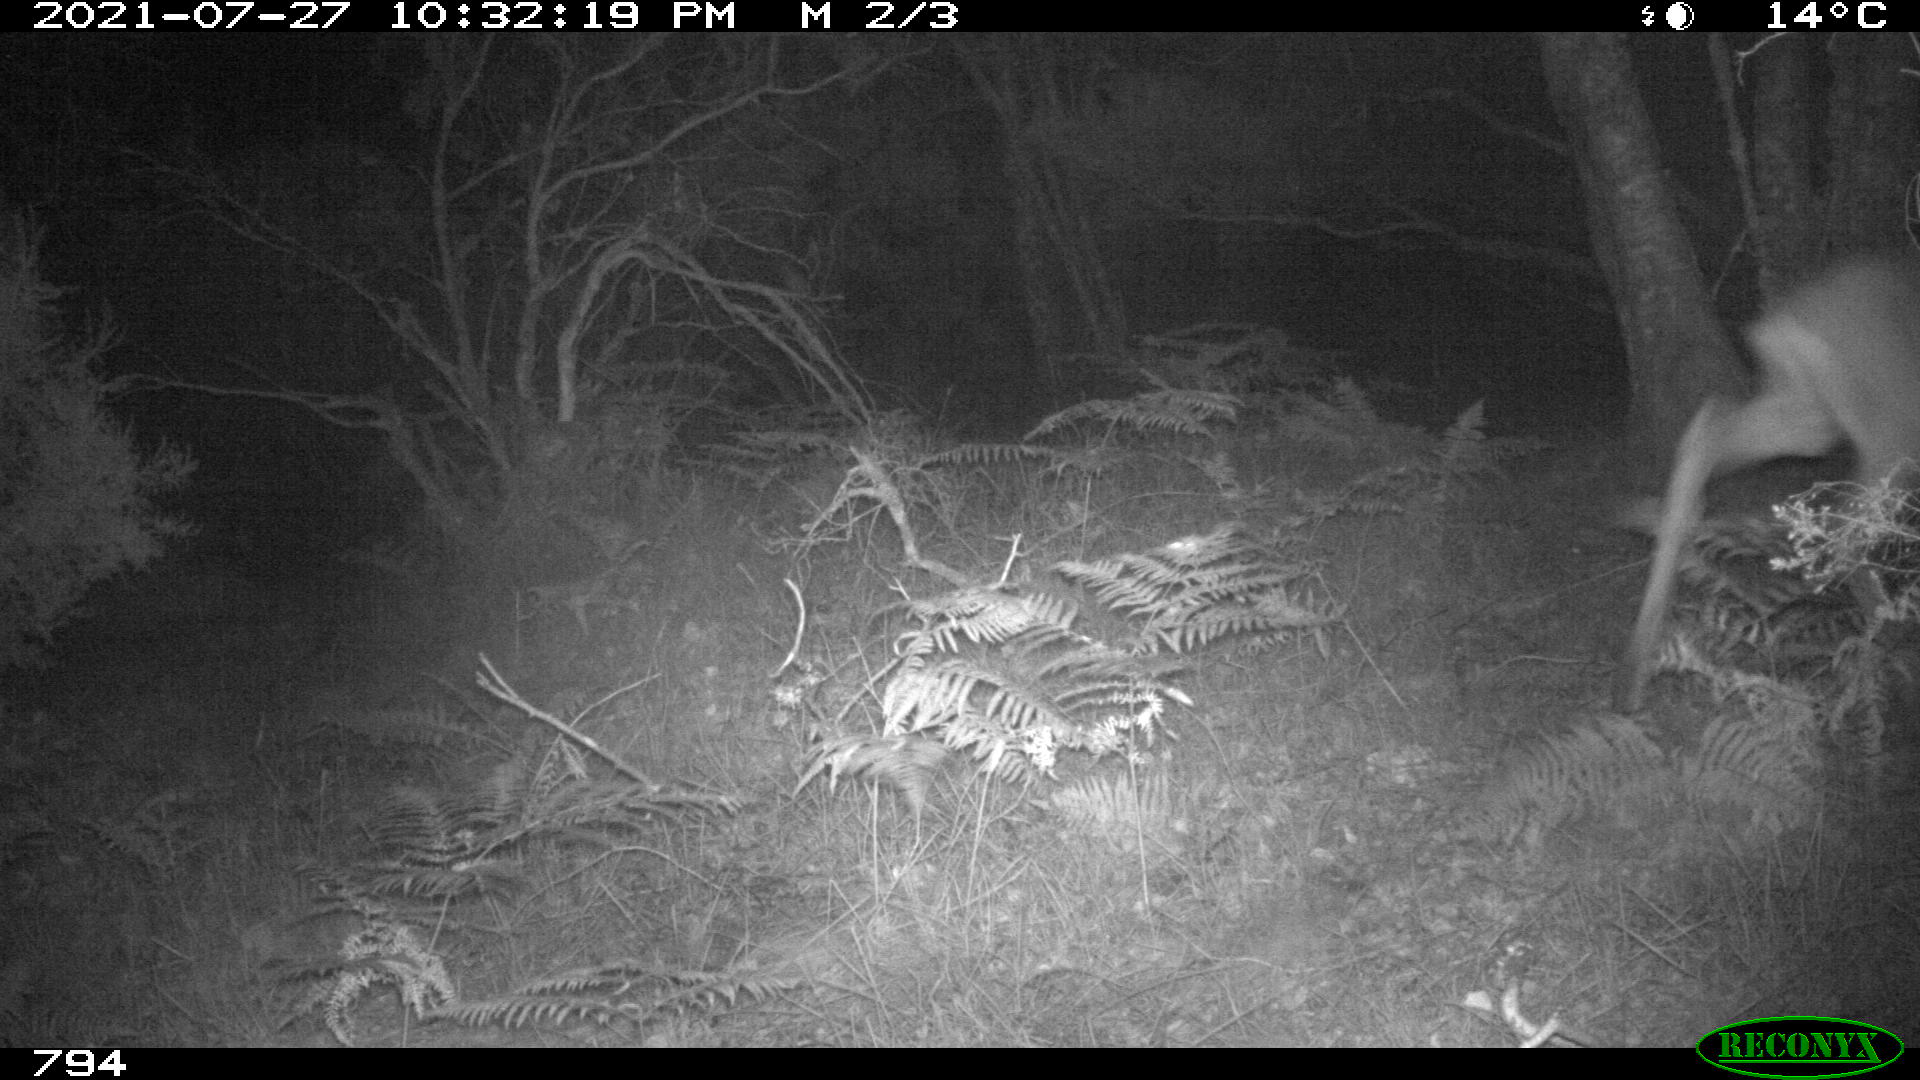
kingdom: Animalia
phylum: Chordata
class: Mammalia
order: Artiodactyla
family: Cervidae
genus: Capreolus
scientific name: Capreolus capreolus
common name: Western roe deer
